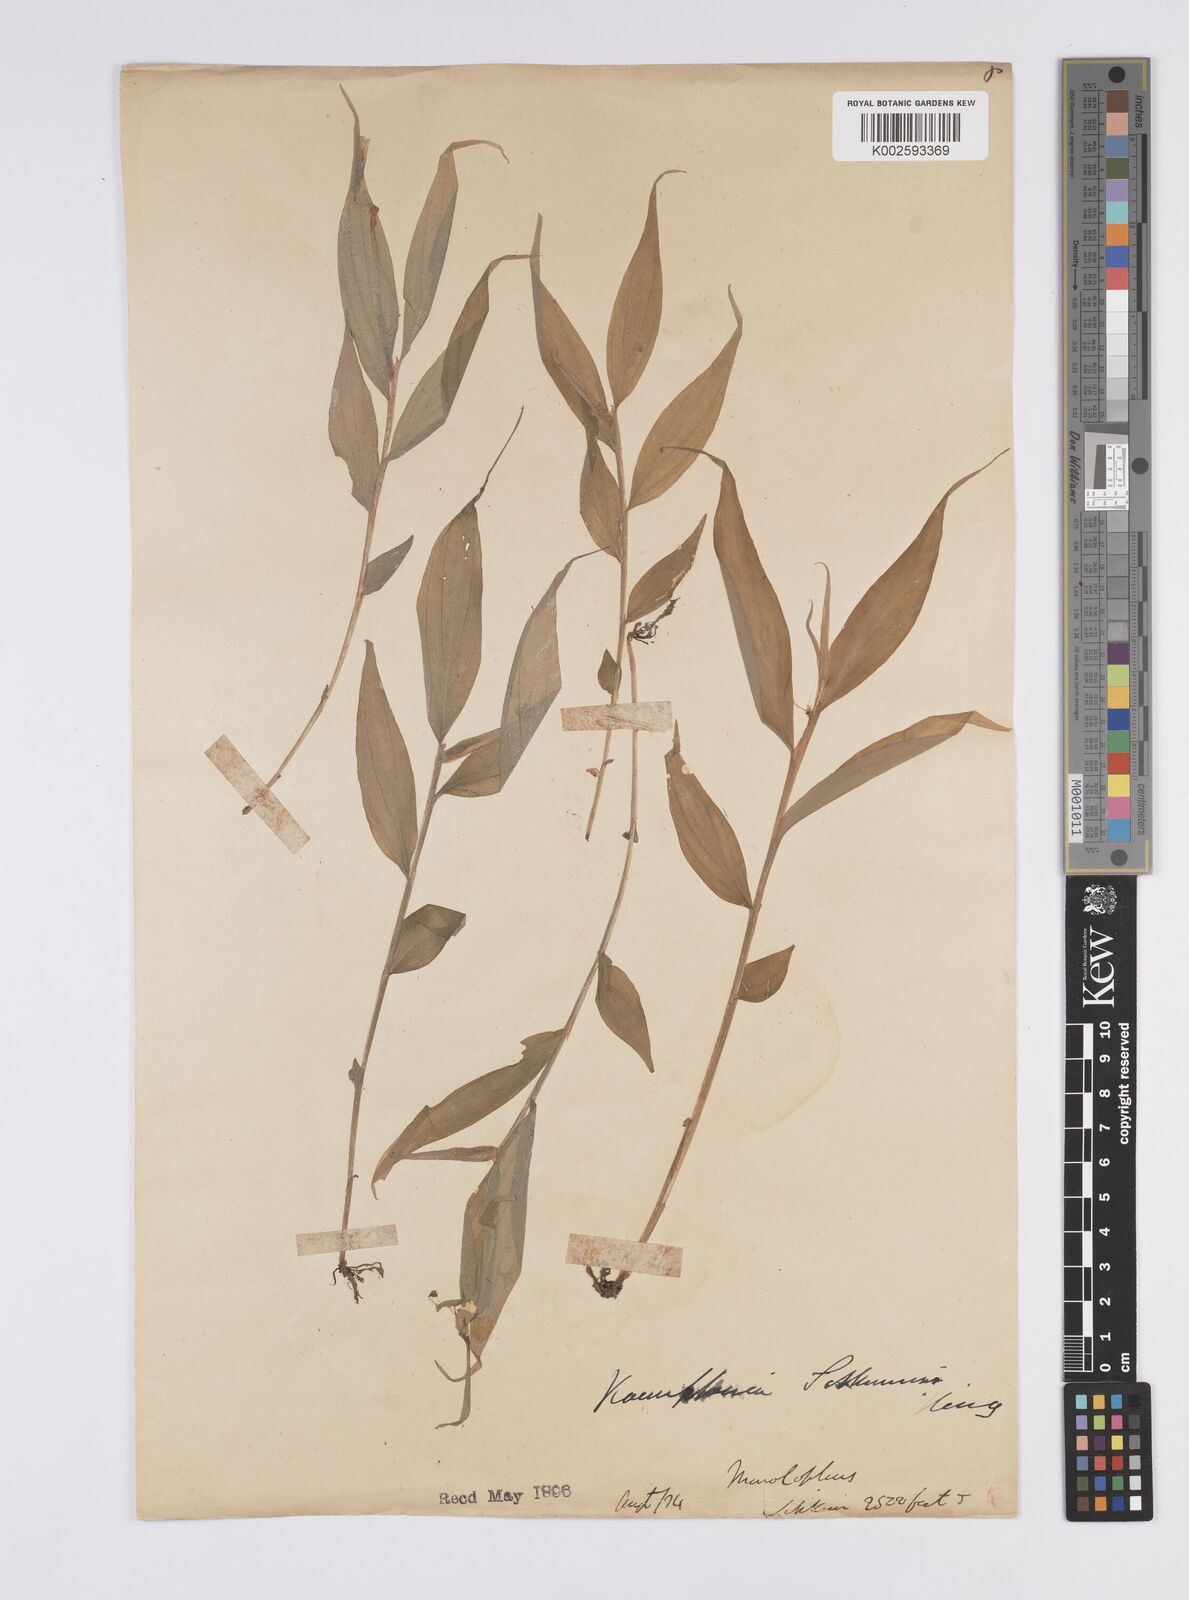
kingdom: Plantae
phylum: Tracheophyta
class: Liliopsida
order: Zingiberales
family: Zingiberaceae
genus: Caulokaempferia
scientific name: Caulokaempferia sikkimensis
